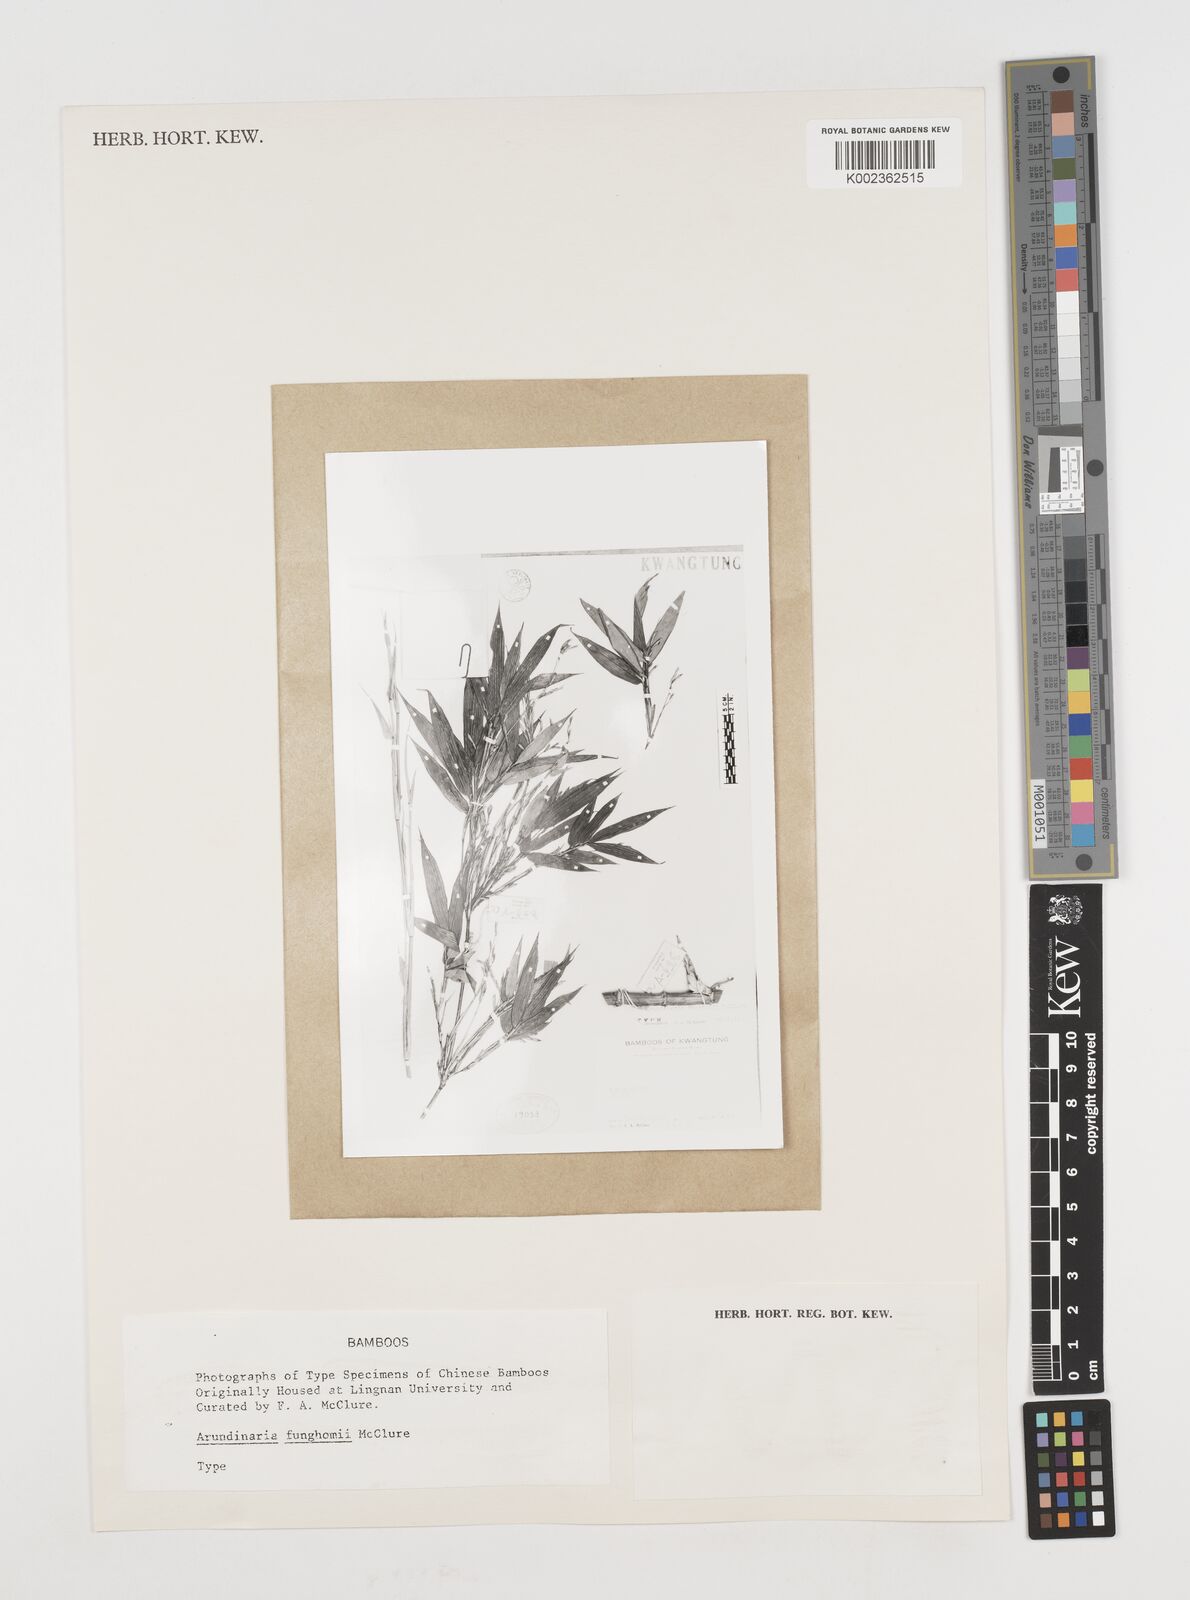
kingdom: Plantae
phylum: Tracheophyta
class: Liliopsida
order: Poales
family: Poaceae
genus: Pseudosasa
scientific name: Pseudosasa cantorii
